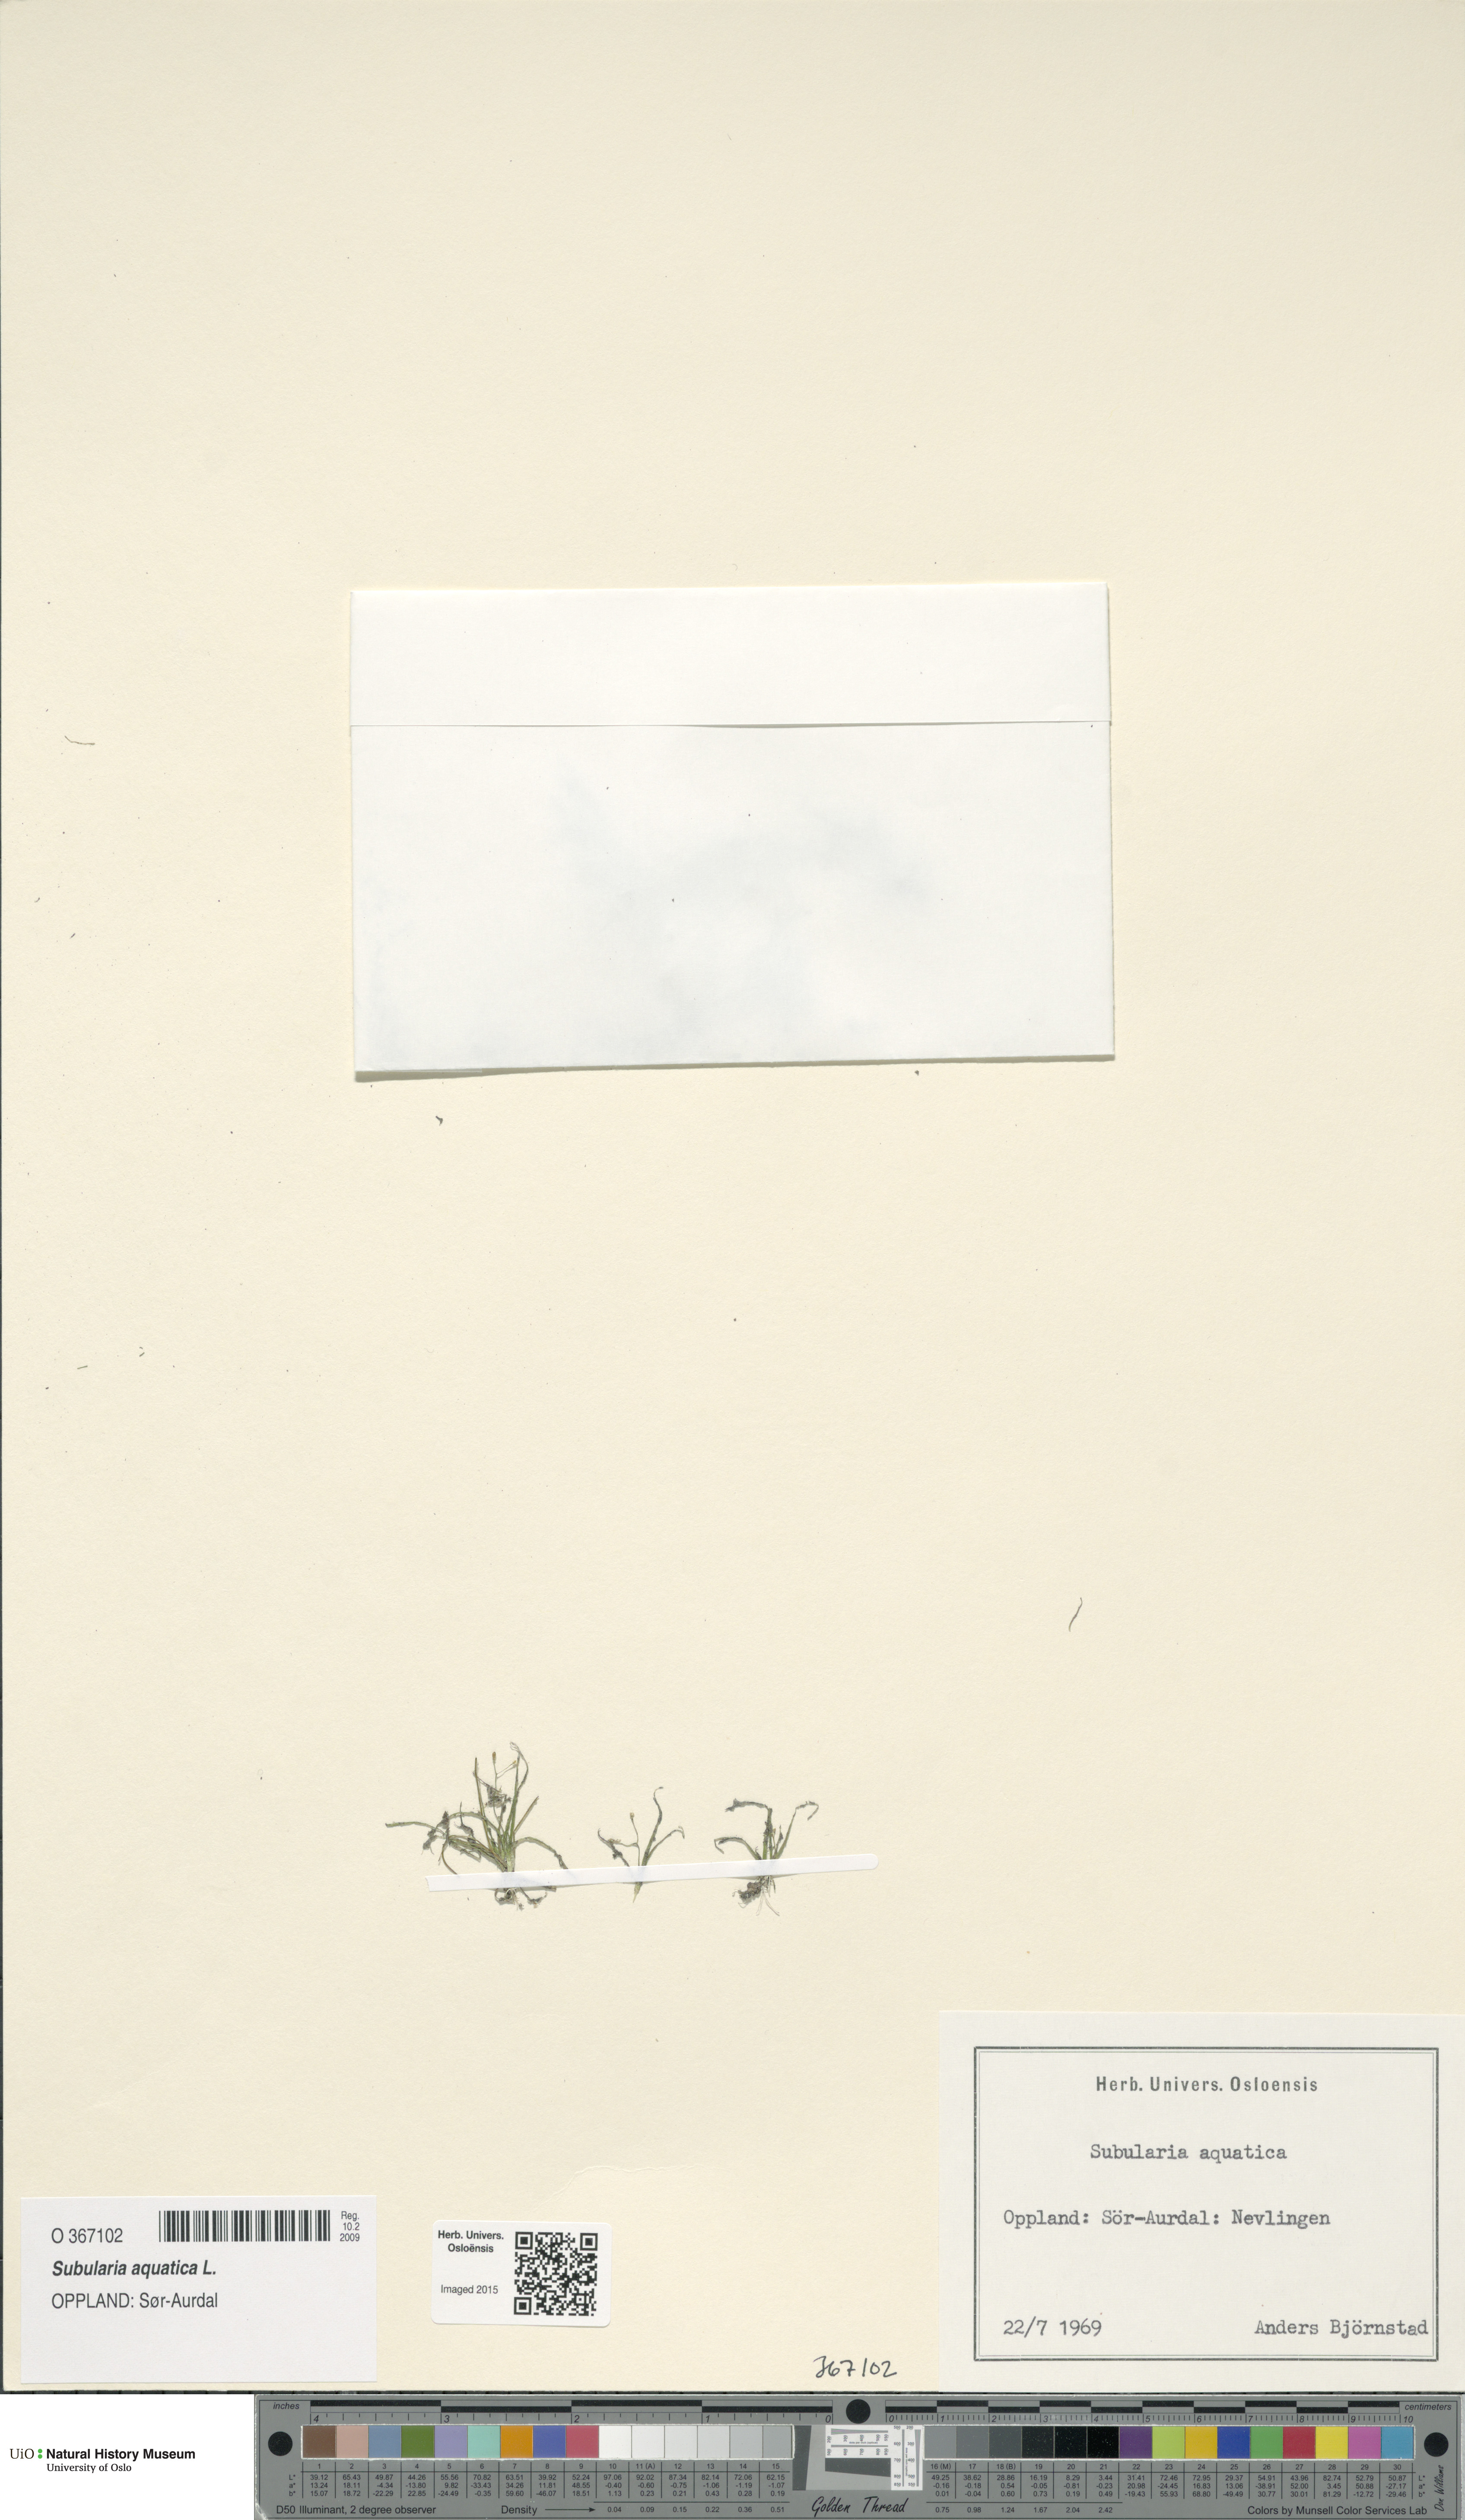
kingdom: Plantae
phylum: Tracheophyta
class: Magnoliopsida
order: Brassicales
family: Brassicaceae
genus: Subularia
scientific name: Subularia aquatica
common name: Awlwort
